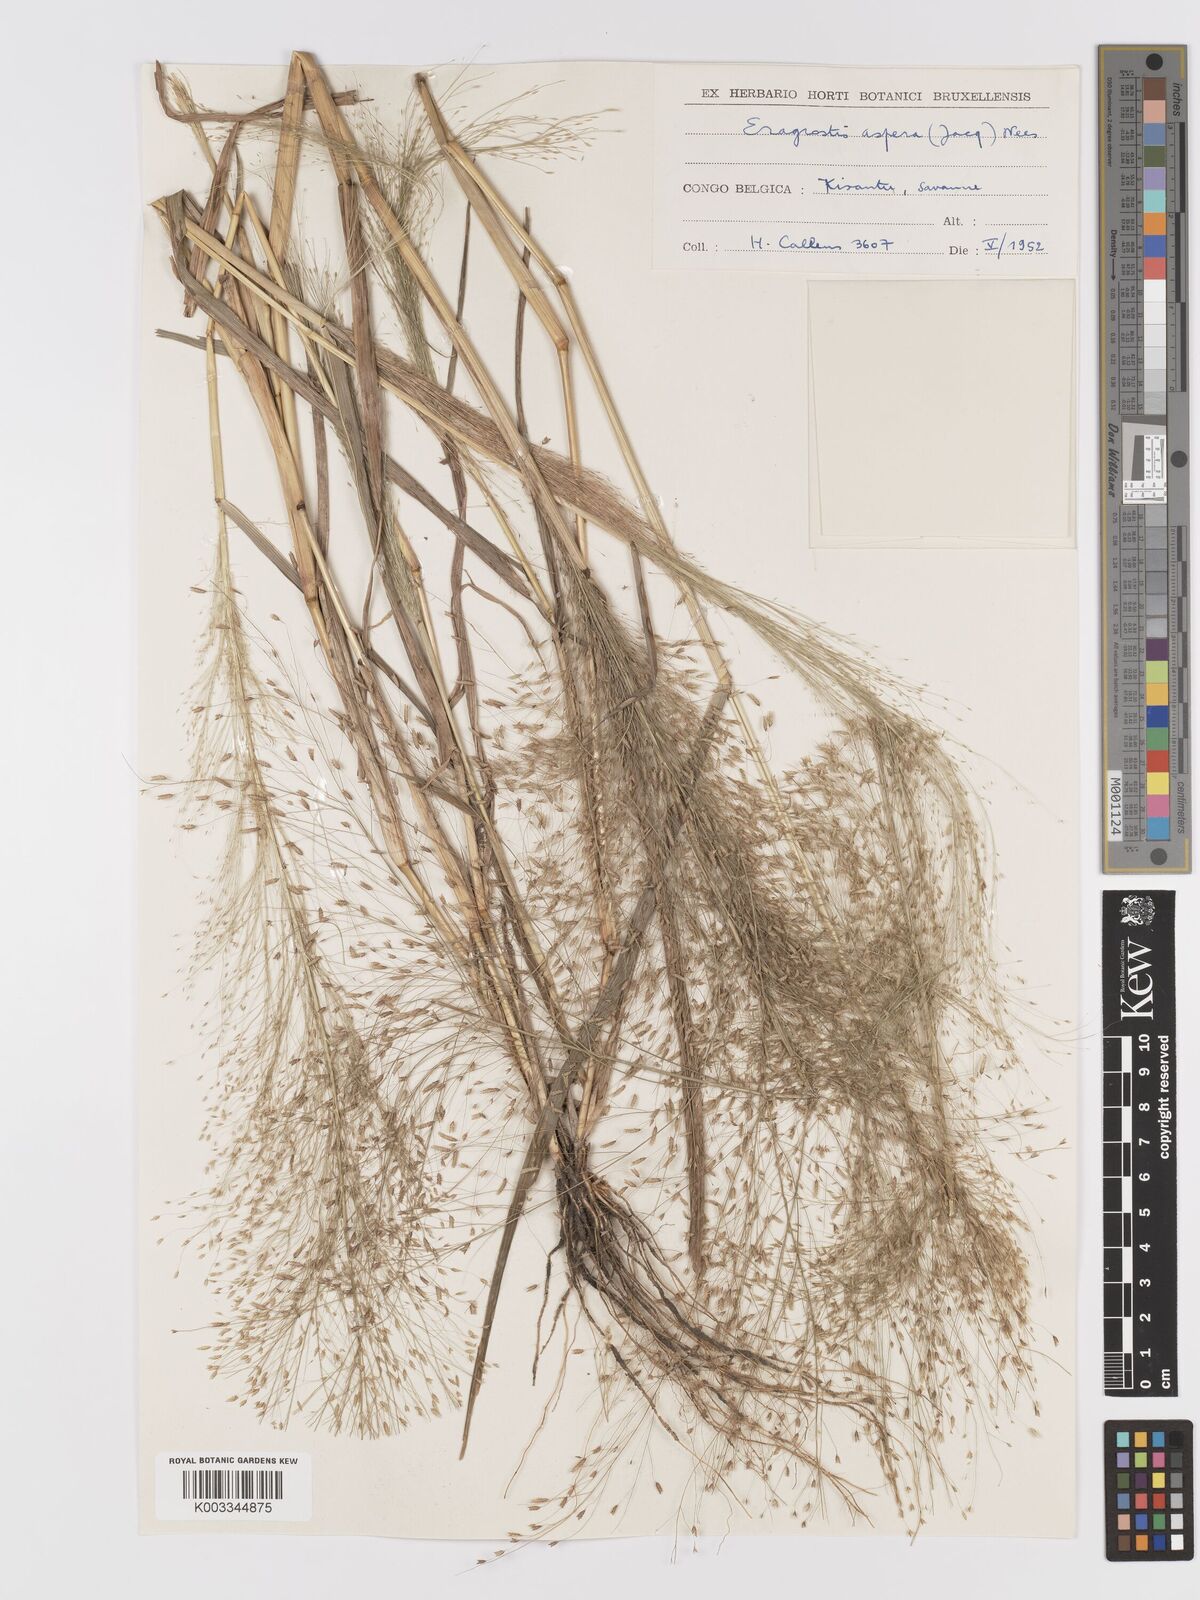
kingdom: Plantae
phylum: Tracheophyta
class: Liliopsida
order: Poales
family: Poaceae
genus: Eragrostis
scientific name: Eragrostis aspera
